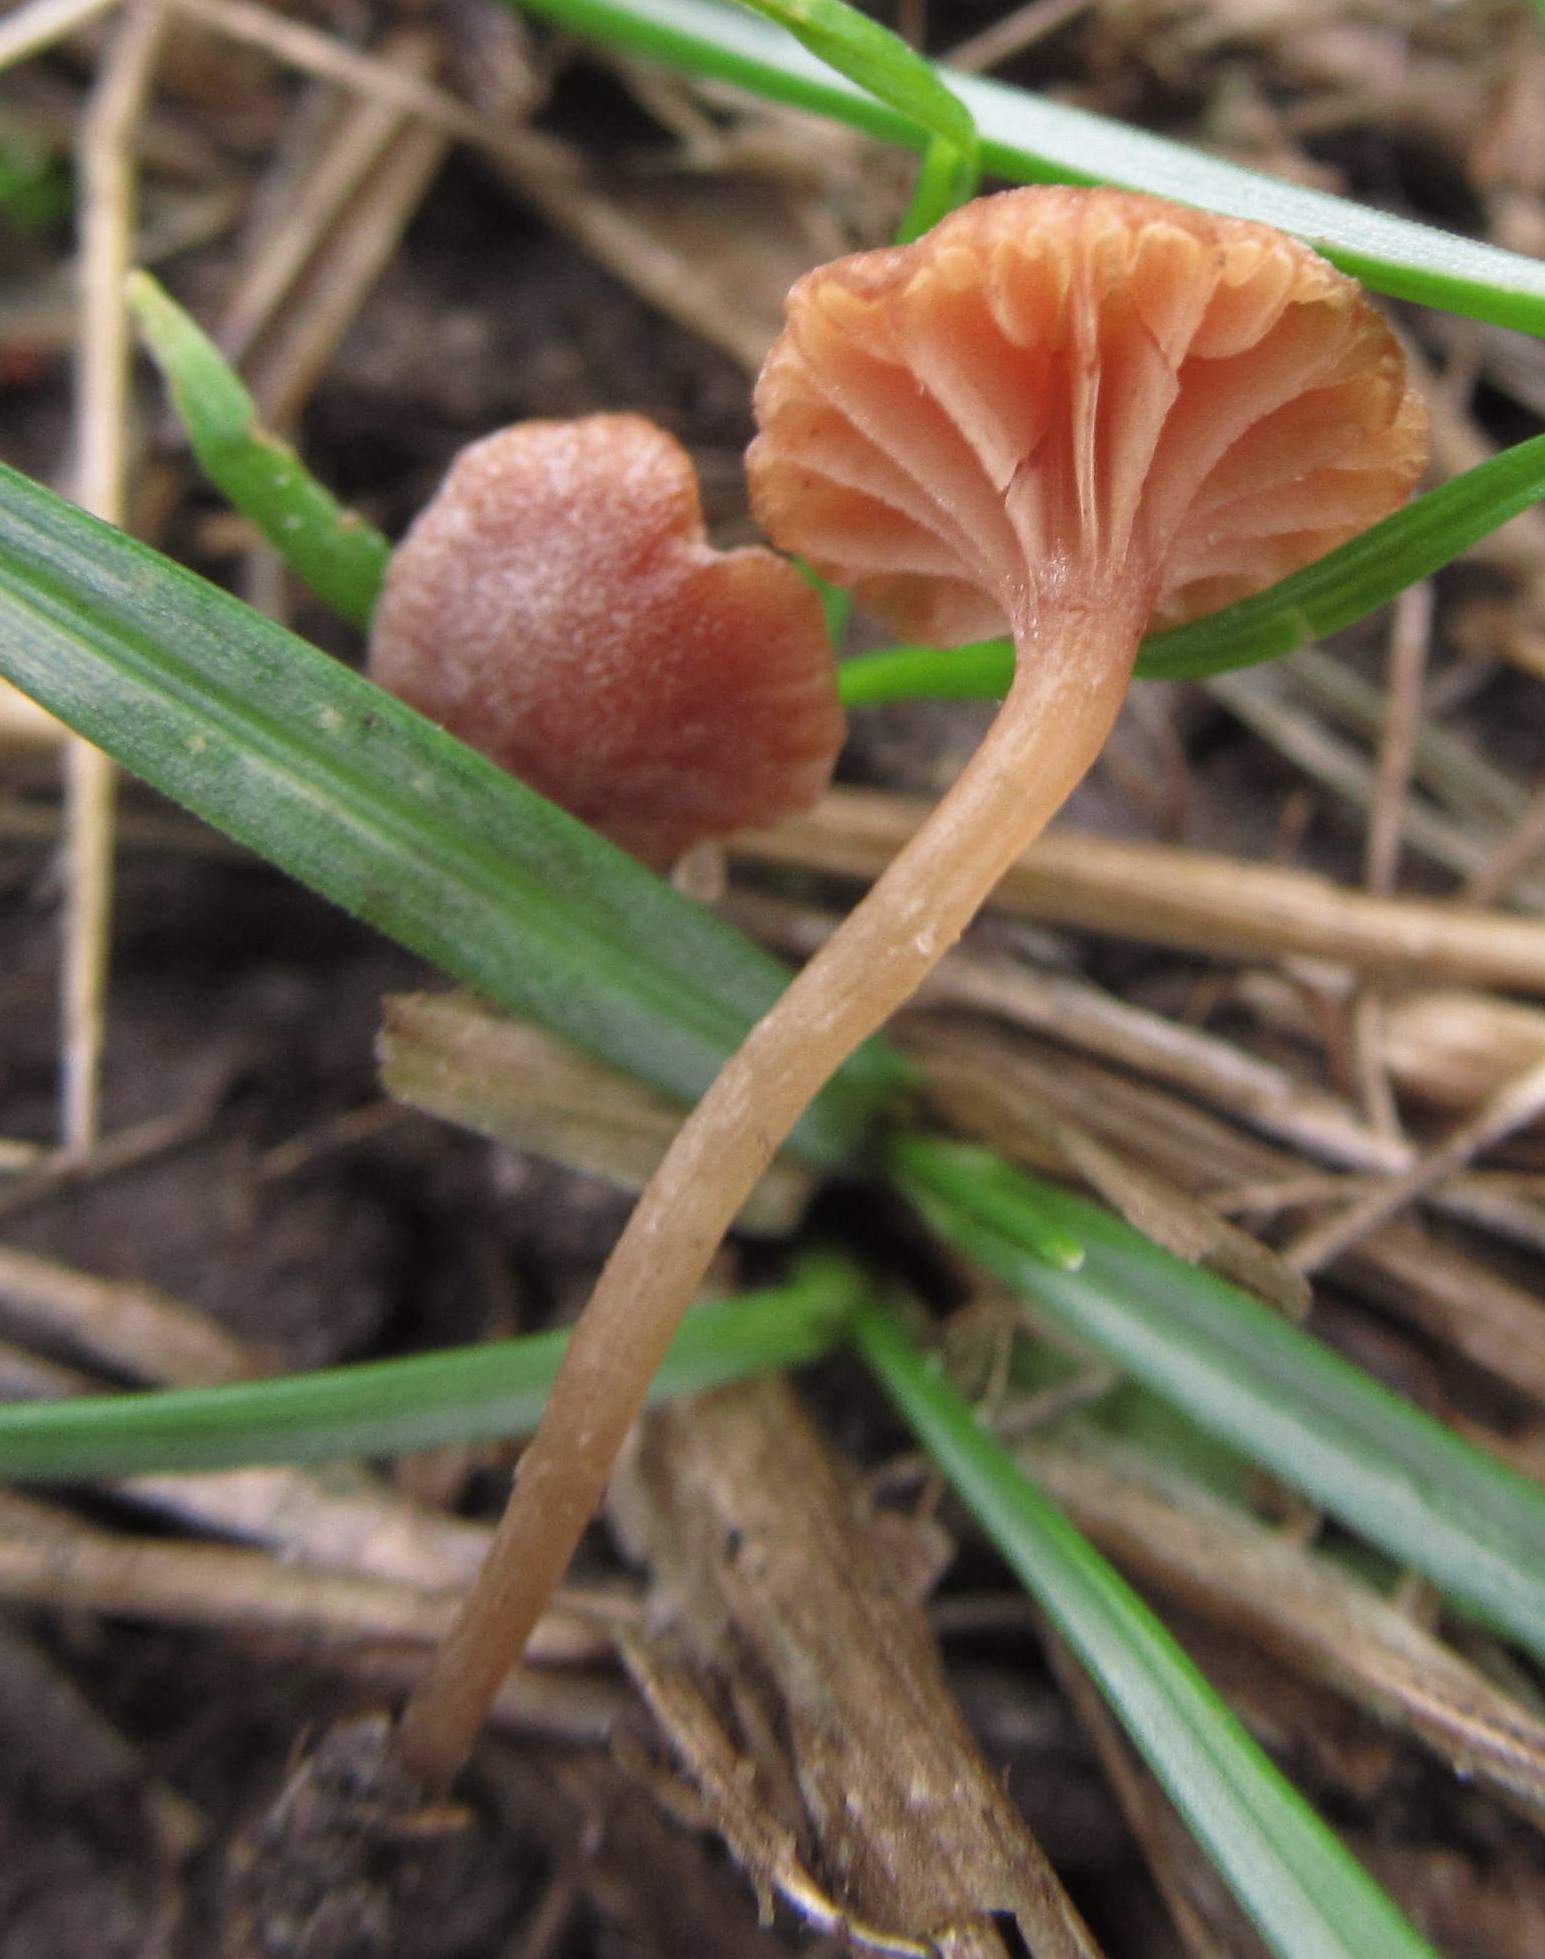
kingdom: Fungi
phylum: Basidiomycota
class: Agaricomycetes
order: Agaricales
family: Tubariaceae
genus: Tubaria
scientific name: Tubaria minutalis
